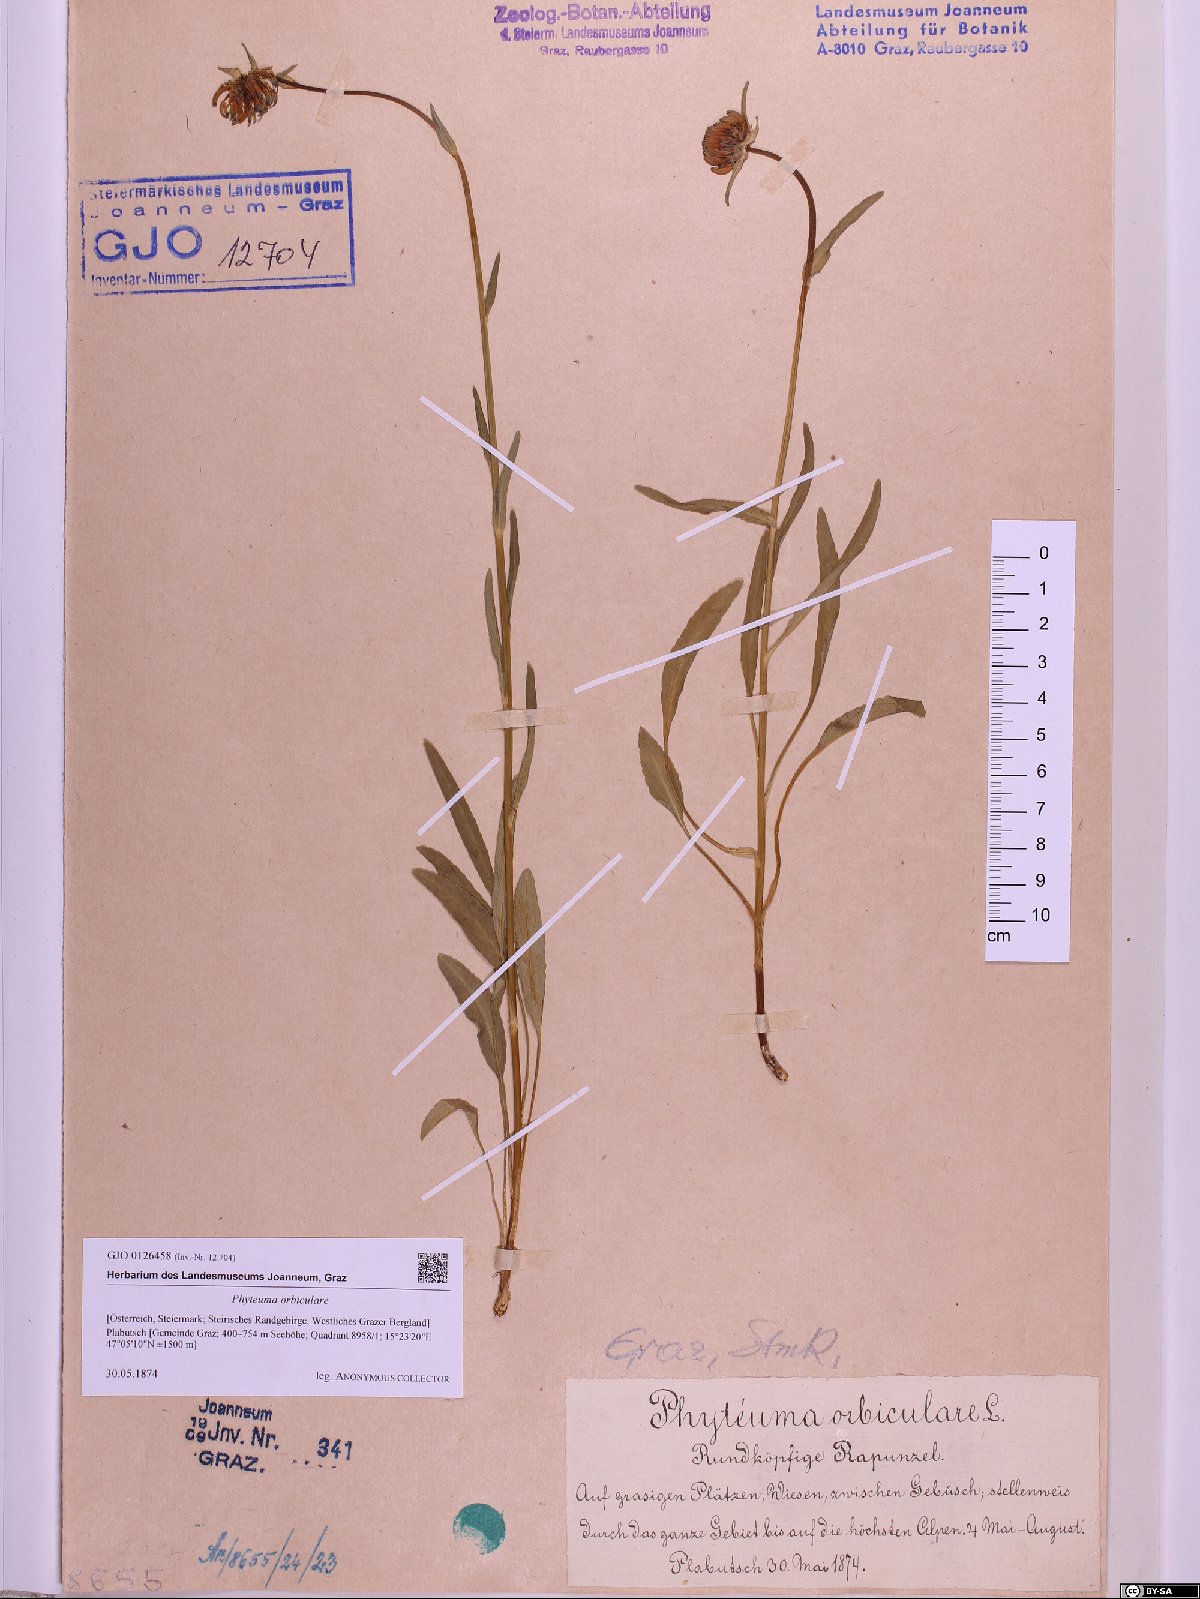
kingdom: Plantae
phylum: Tracheophyta
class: Magnoliopsida
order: Asterales
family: Campanulaceae
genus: Phyteuma
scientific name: Phyteuma orbiculare
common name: Round-headed rampion
